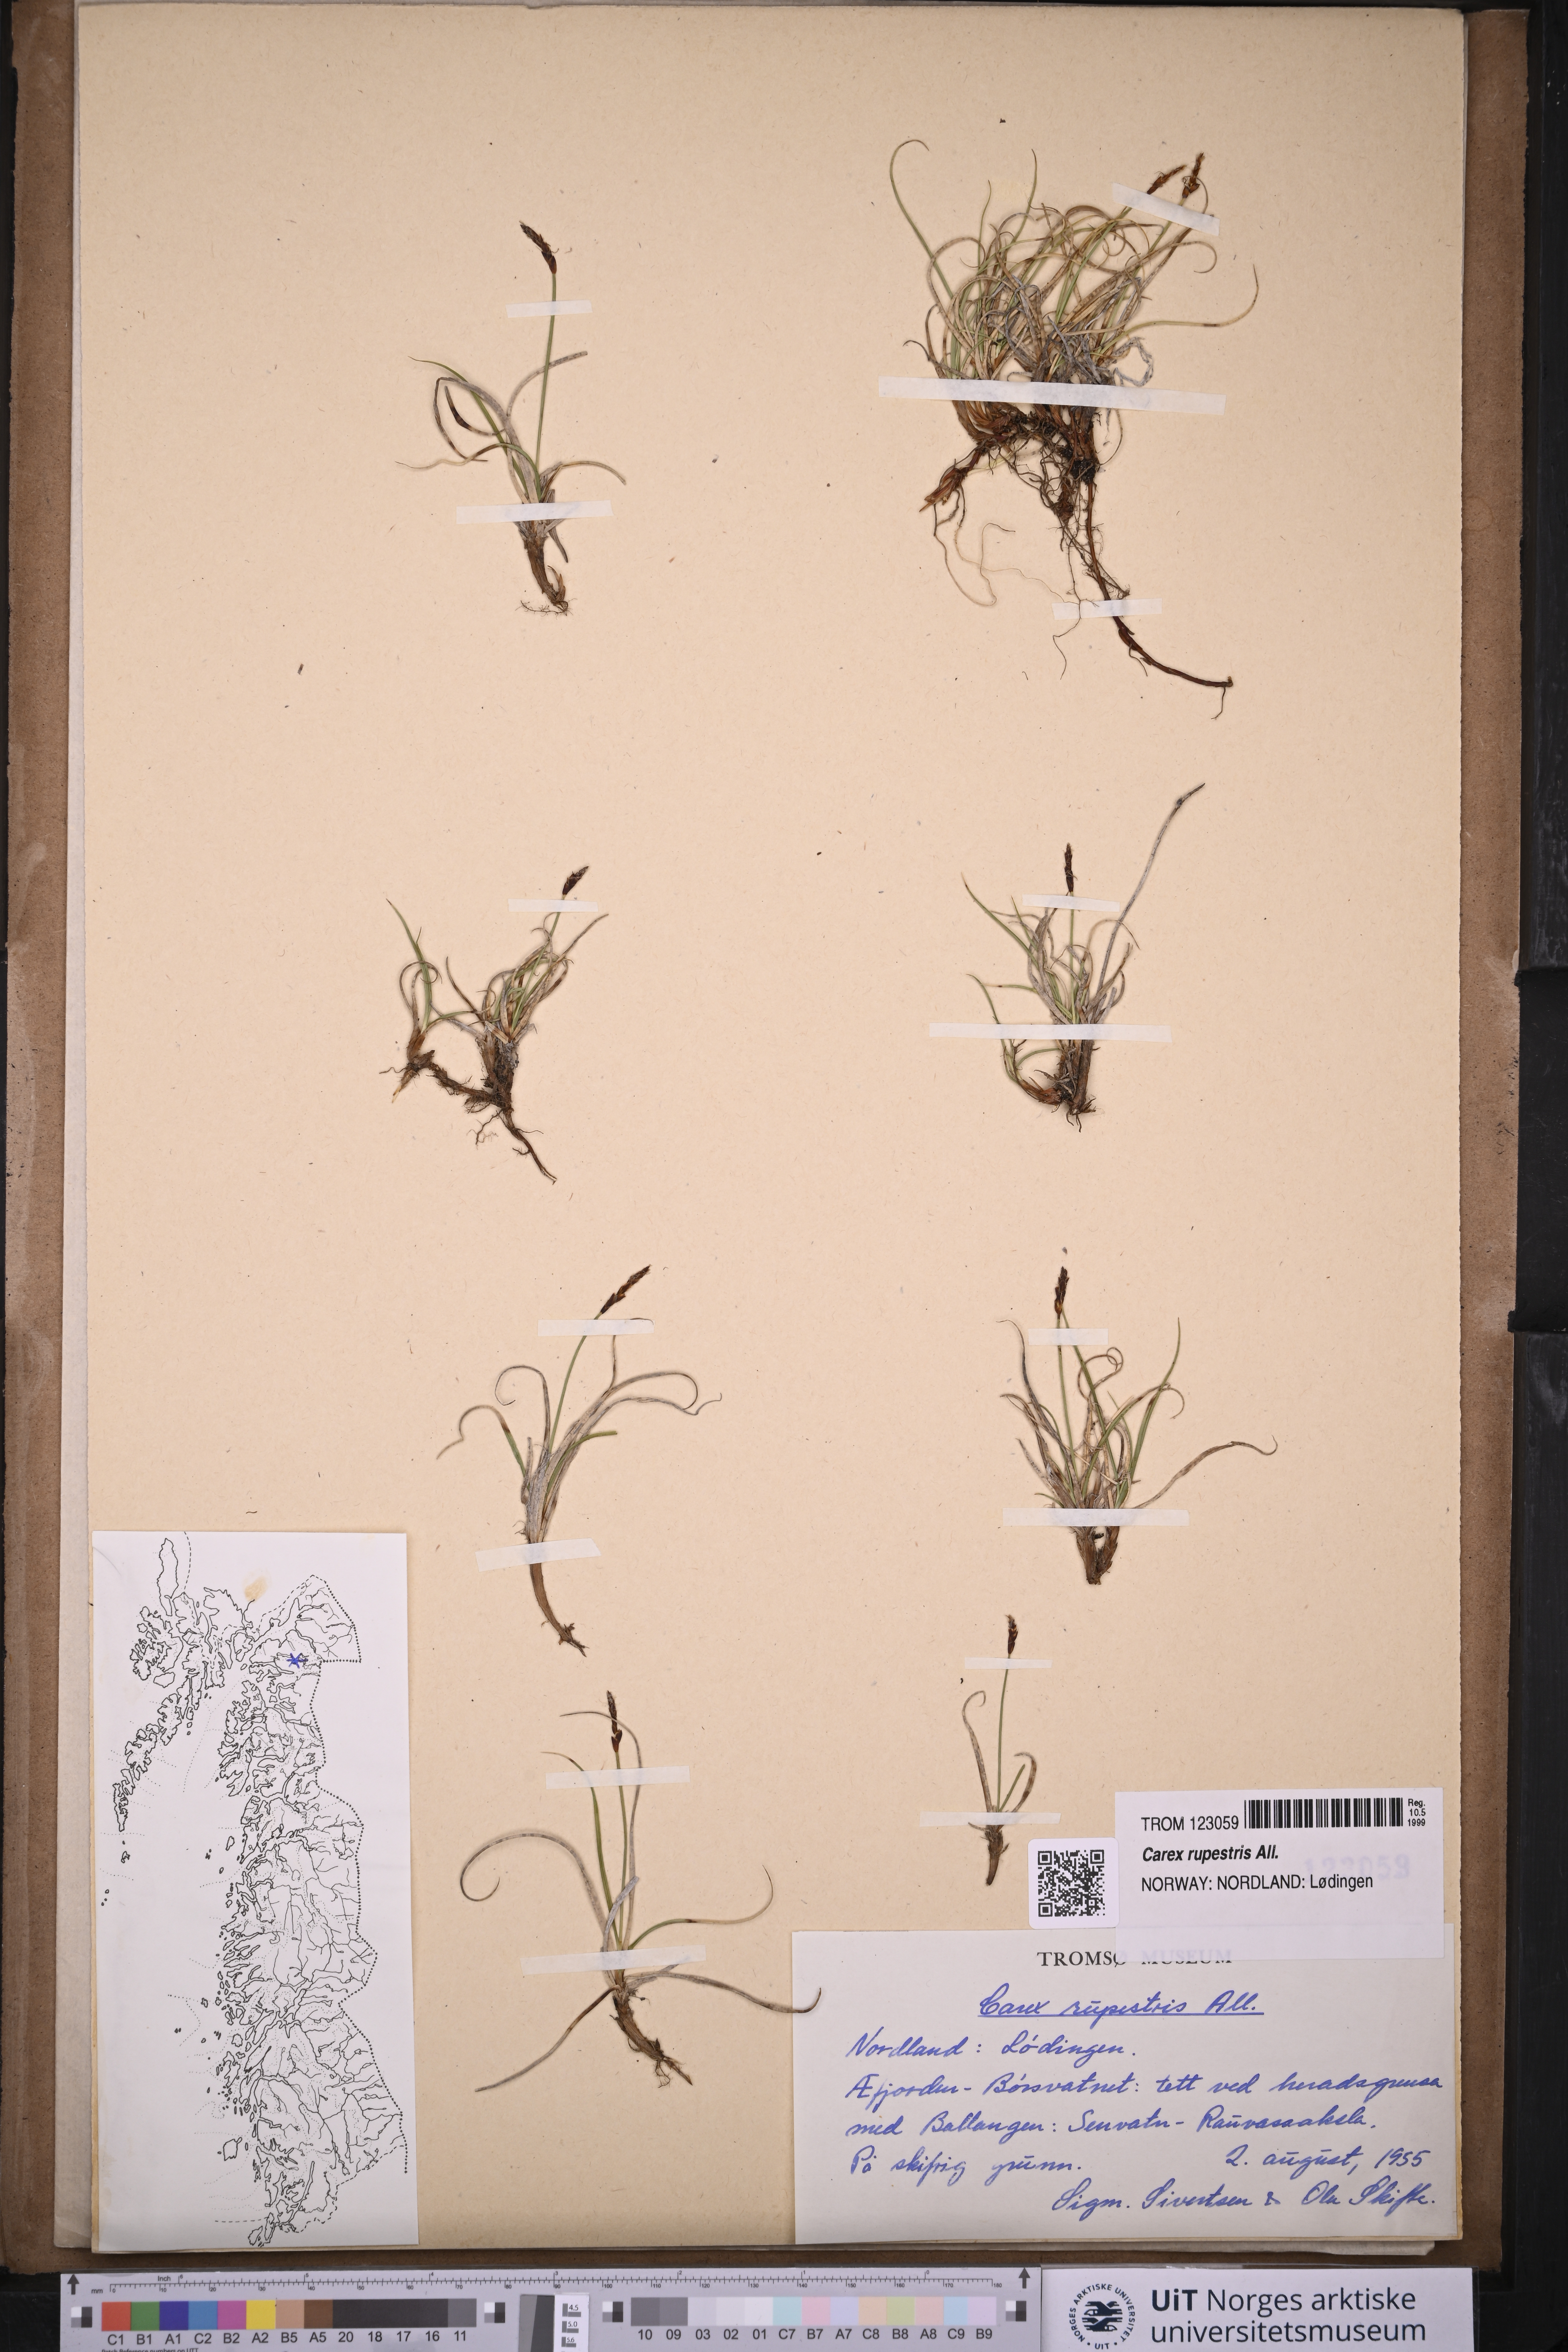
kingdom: Plantae
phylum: Tracheophyta
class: Liliopsida
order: Poales
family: Cyperaceae
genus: Carex
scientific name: Carex rupestris
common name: Rock sedge
